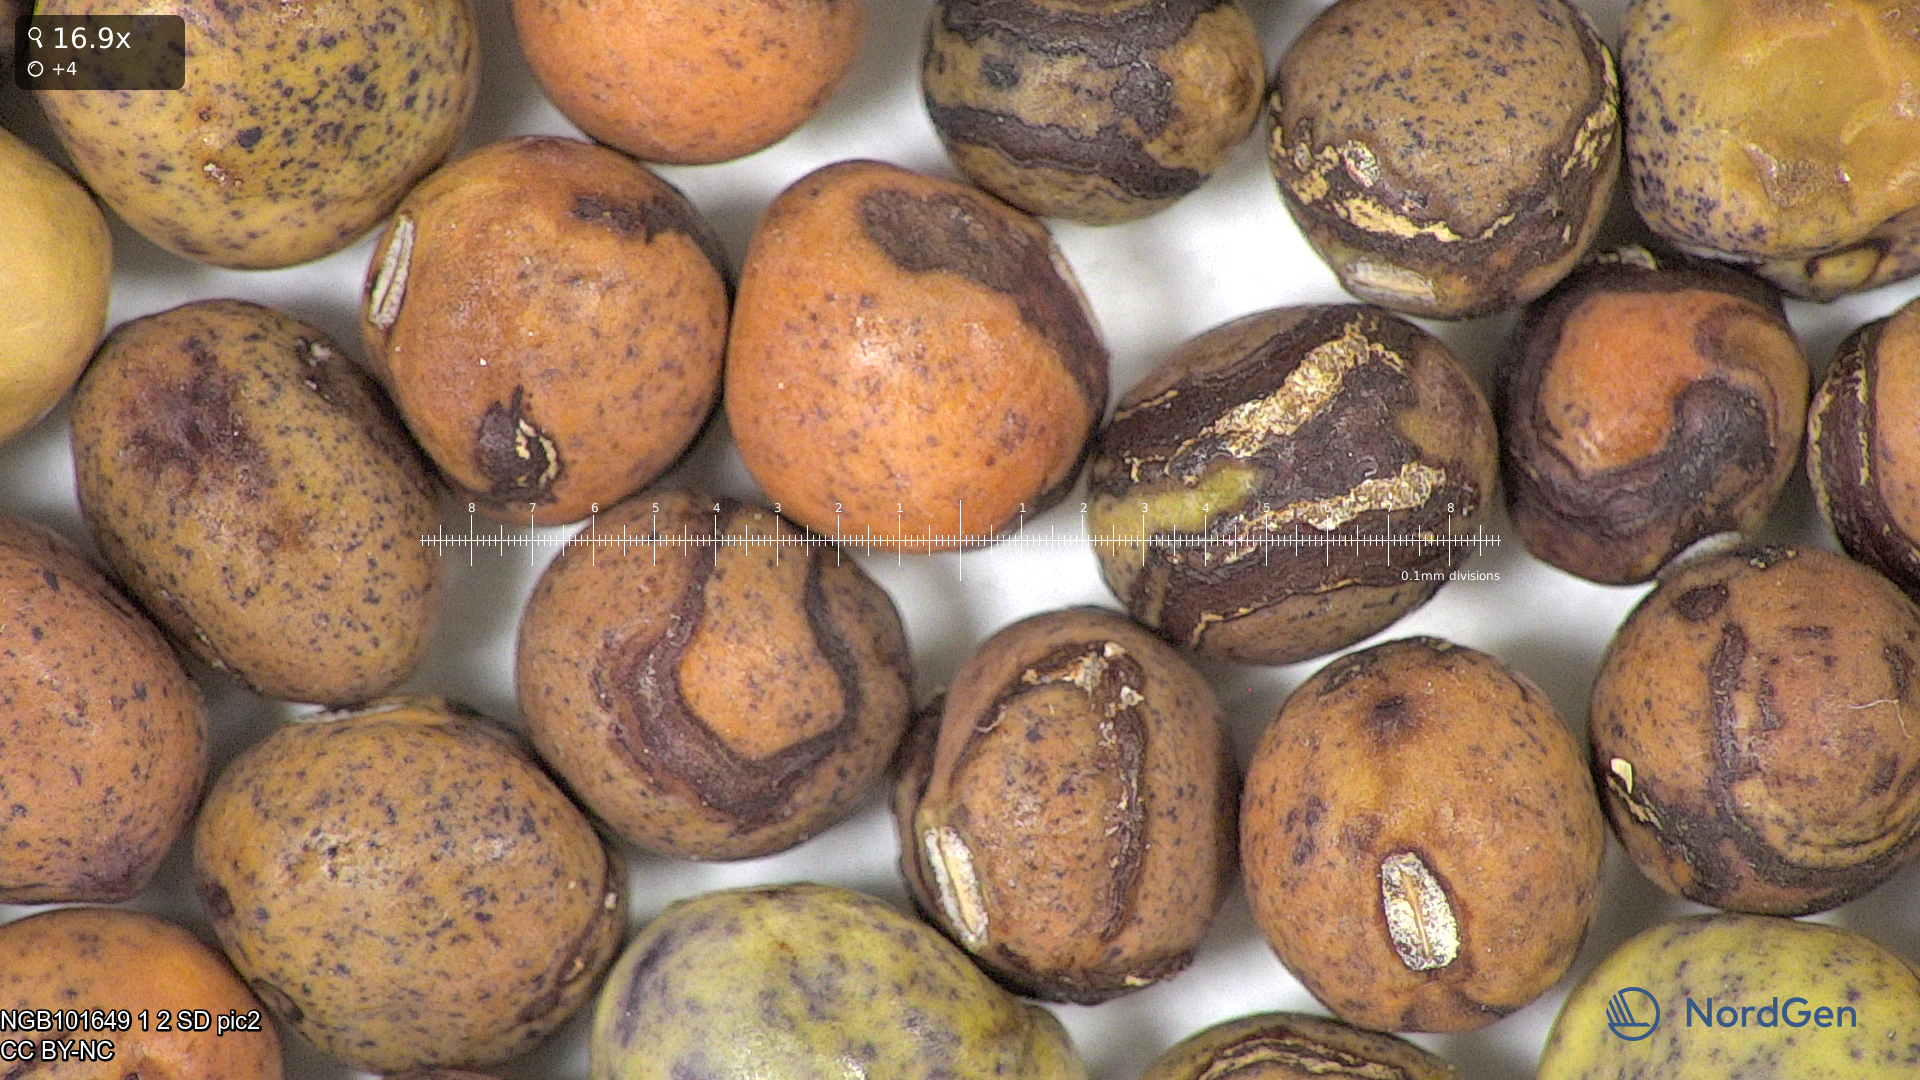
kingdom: Plantae
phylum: Tracheophyta
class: Magnoliopsida
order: Fabales
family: Fabaceae
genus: Lathyrus
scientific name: Lathyrus oleraceus
